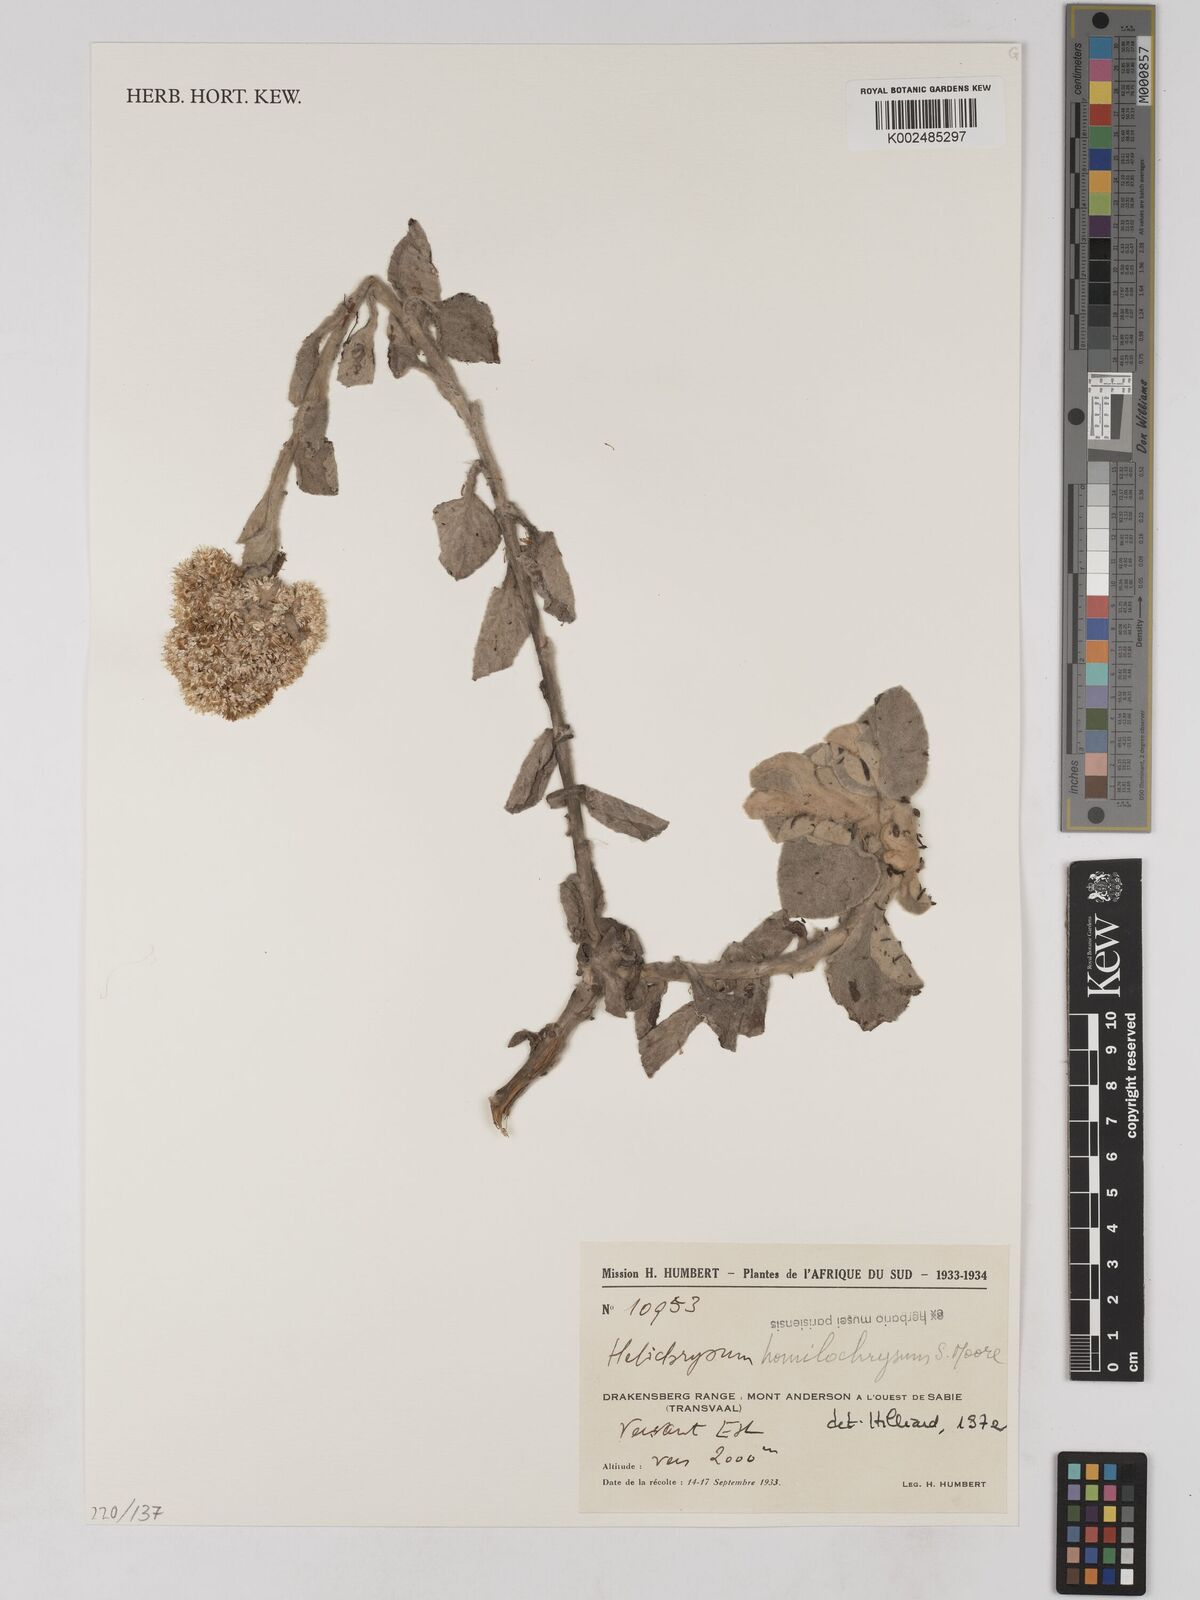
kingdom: Plantae
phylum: Tracheophyta
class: Magnoliopsida
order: Asterales
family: Asteraceae
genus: Helichrysum
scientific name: Helichrysum homilochrysum
